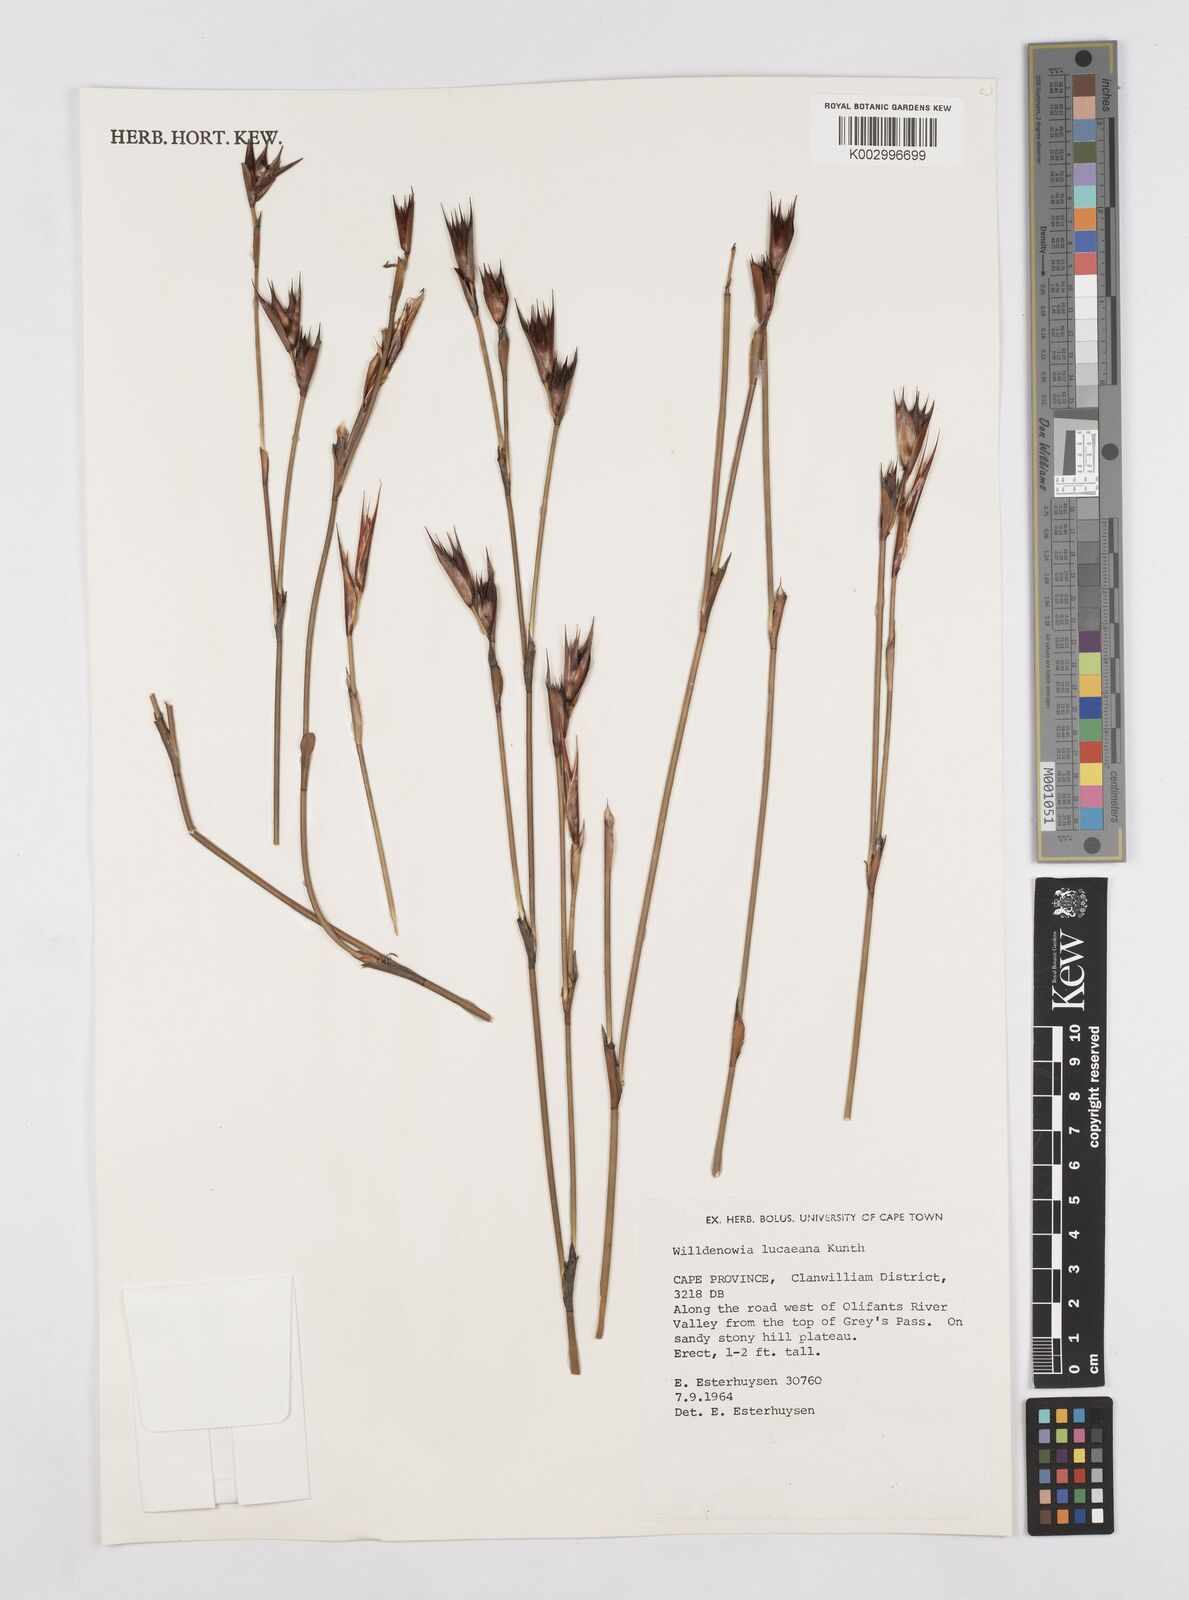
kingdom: Plantae
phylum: Tracheophyta
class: Liliopsida
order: Poales
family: Restionaceae
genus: Willdenowia
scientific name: Willdenowia glomerata
